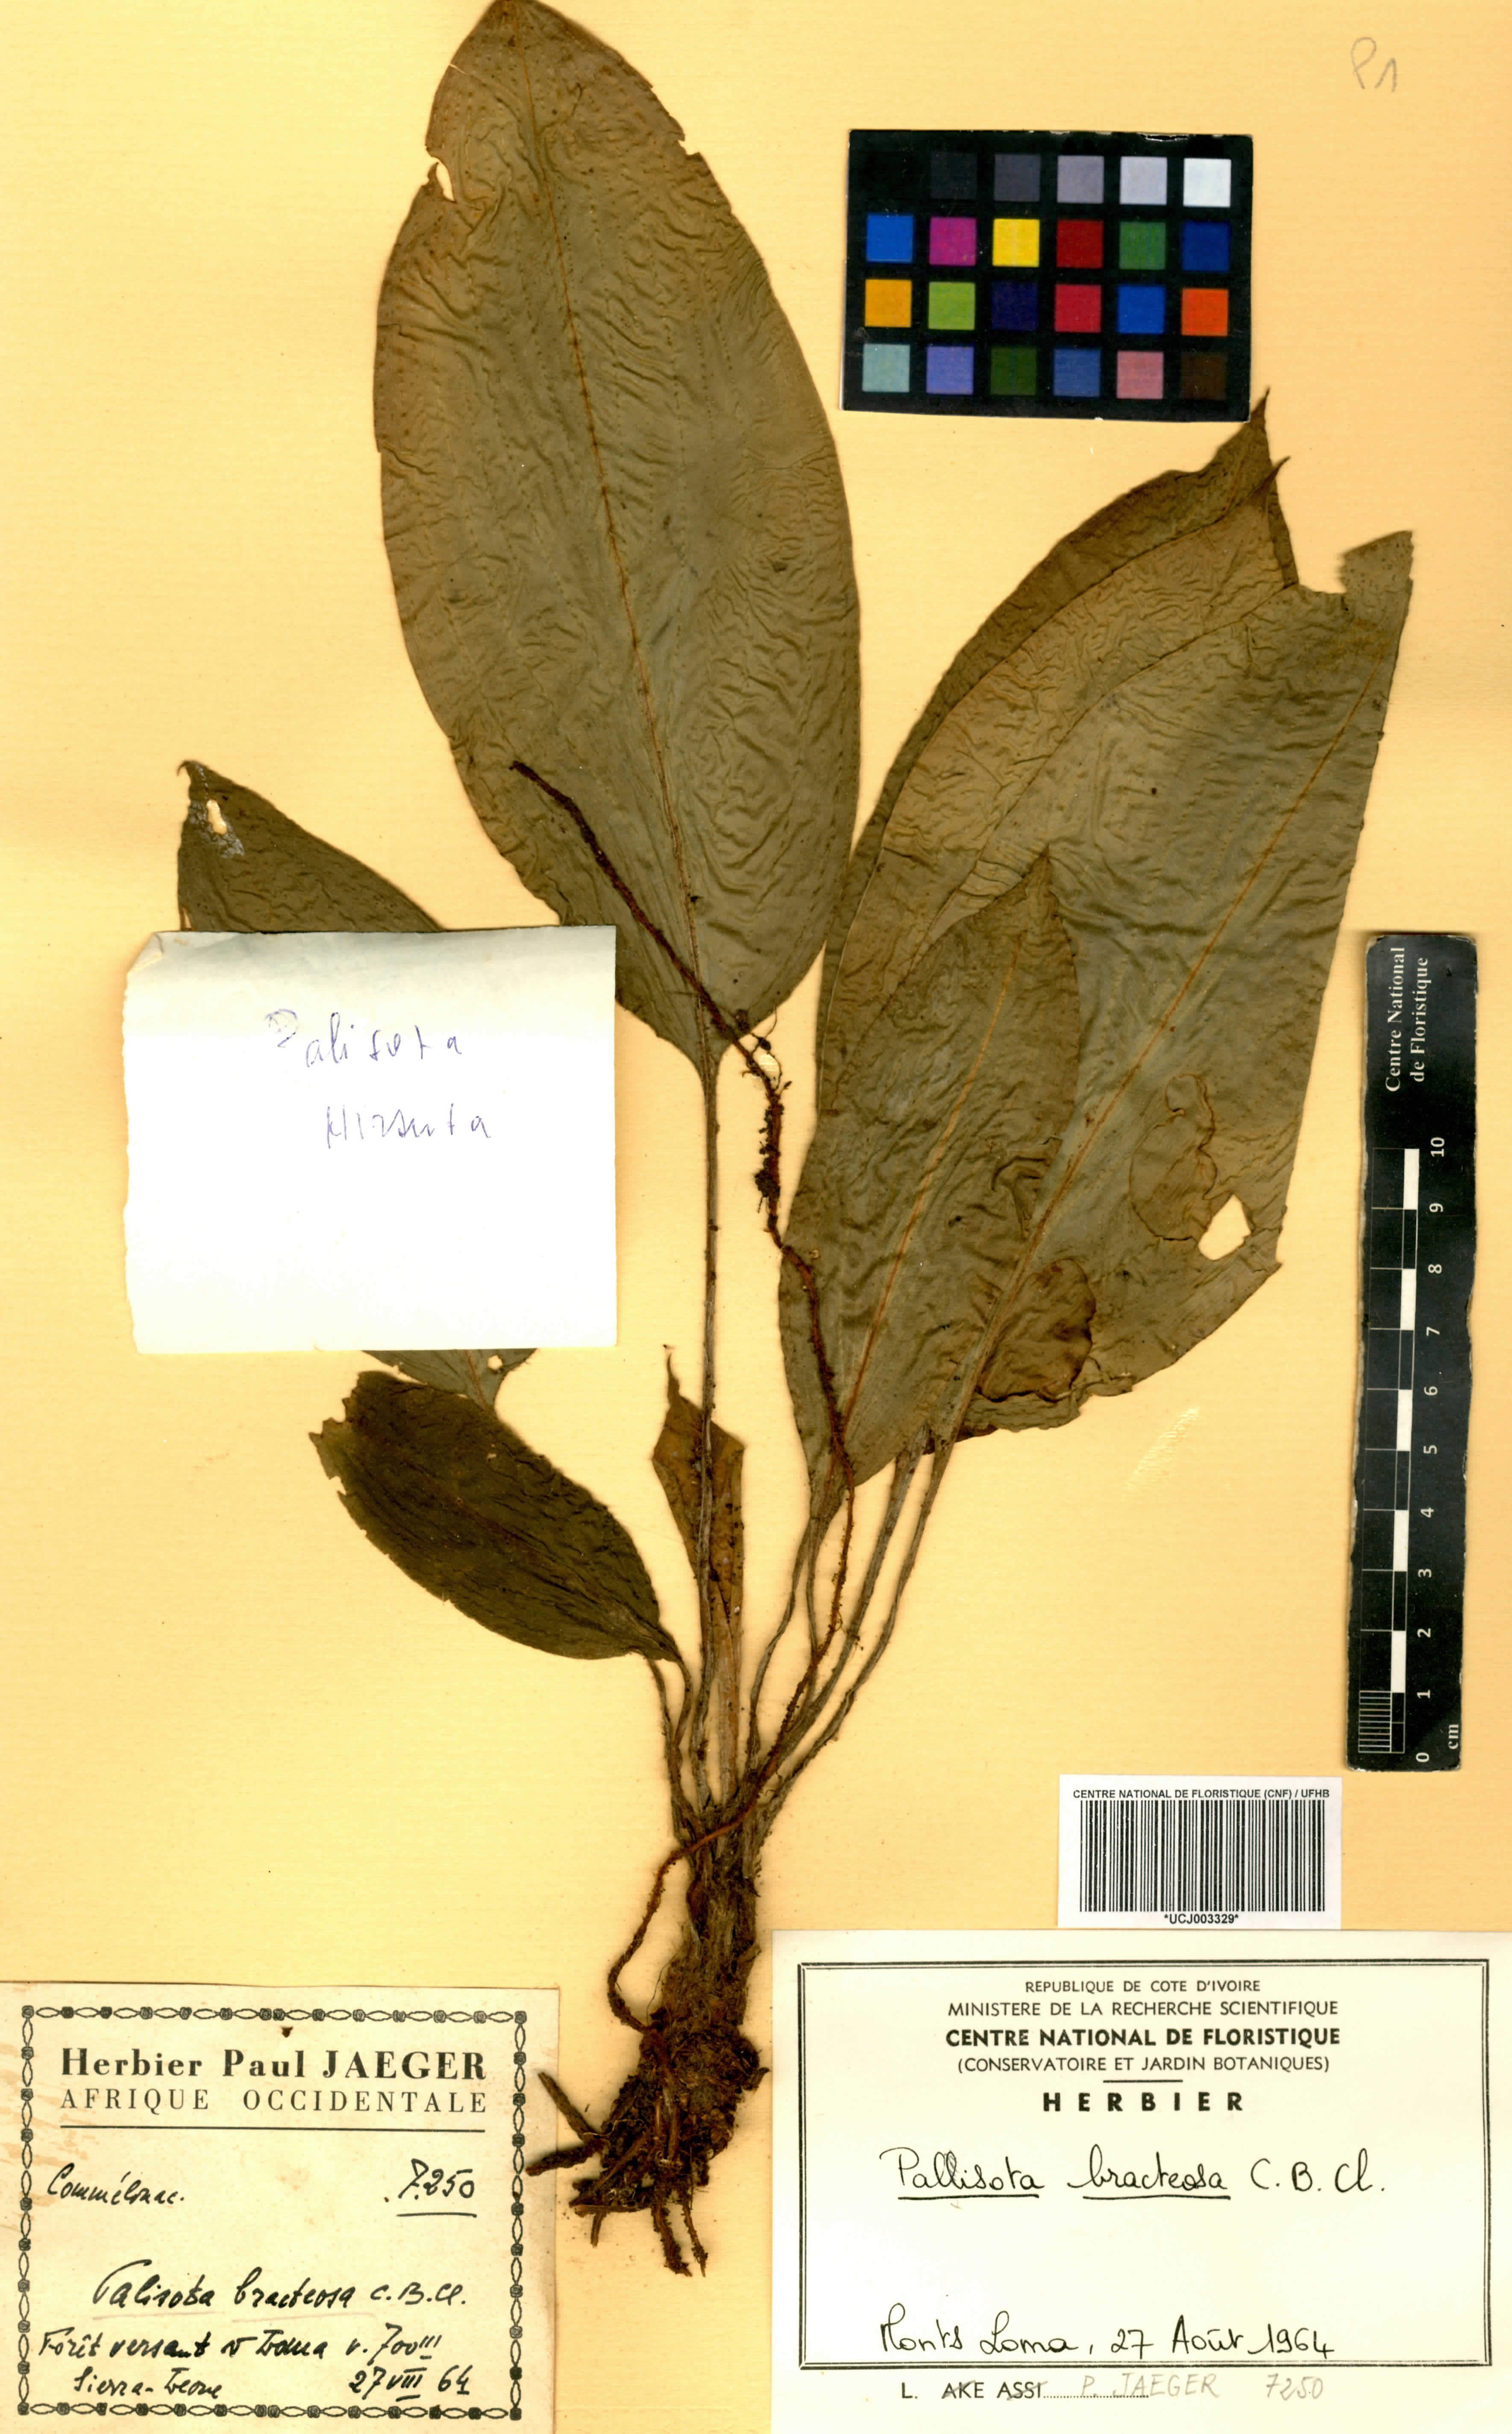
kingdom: Plantae
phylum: Tracheophyta
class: Liliopsida
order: Commelinales
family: Commelinaceae
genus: Palisota
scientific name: Palisota bracteosa
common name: Palisota
